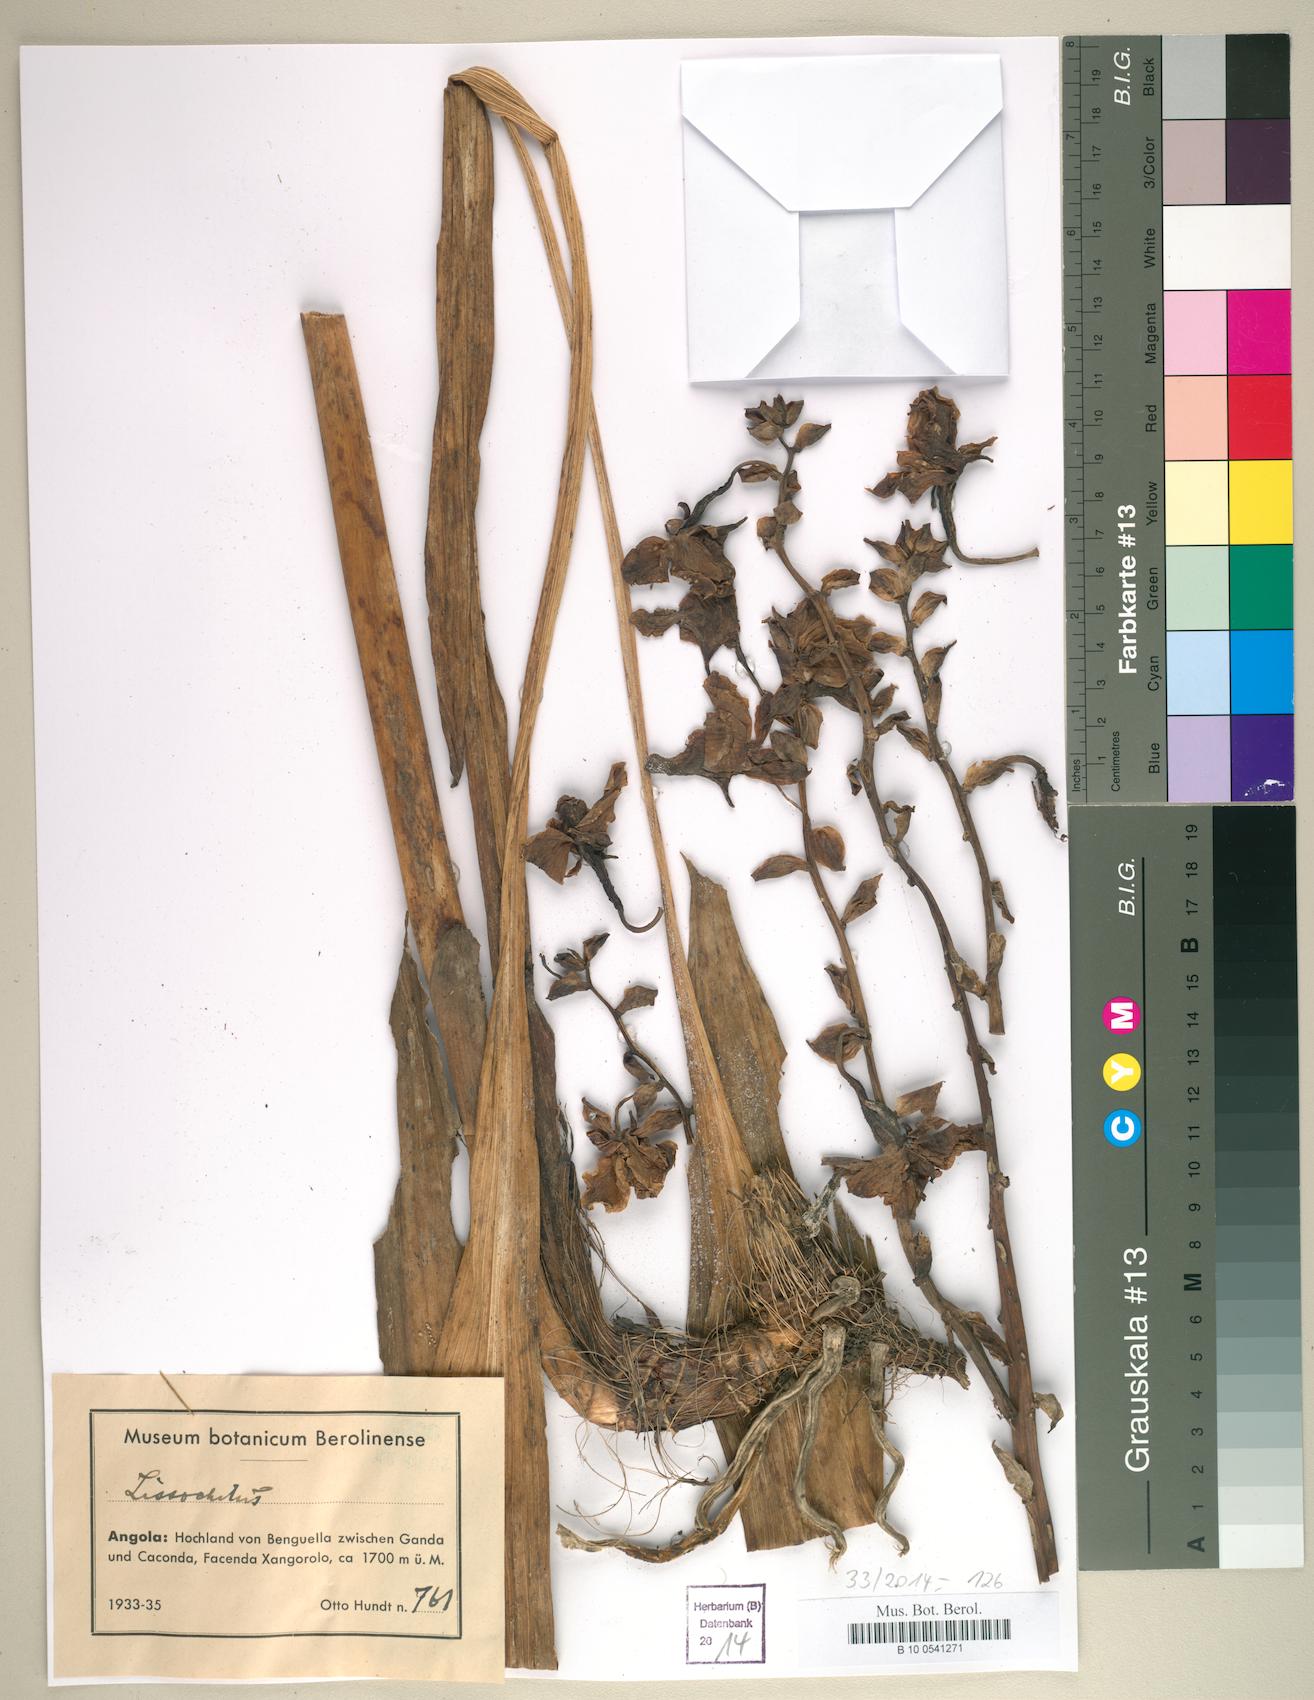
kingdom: Animalia
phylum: Mollusca
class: Gastropoda
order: Cycloneritida
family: Neritidae
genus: Lissochilus
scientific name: Lissochilus
